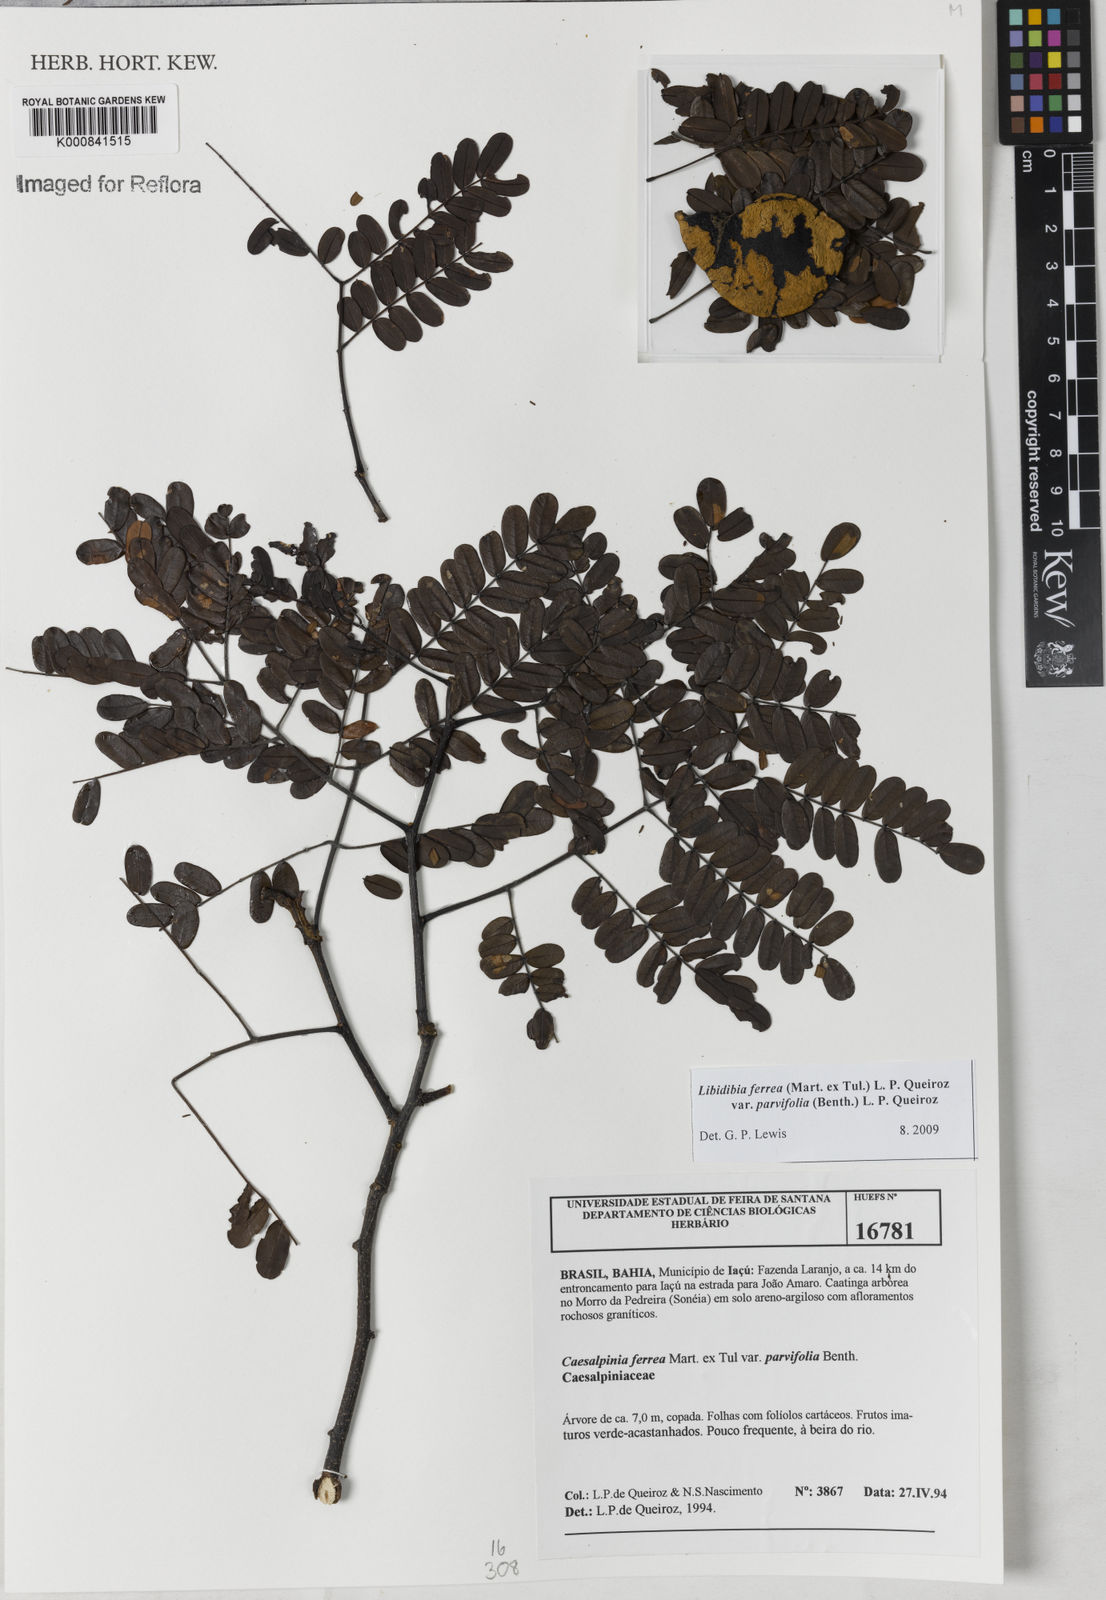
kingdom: Plantae
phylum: Tracheophyta
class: Magnoliopsida
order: Fabales
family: Fabaceae
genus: Libidibia
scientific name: Libidibia ferrea
